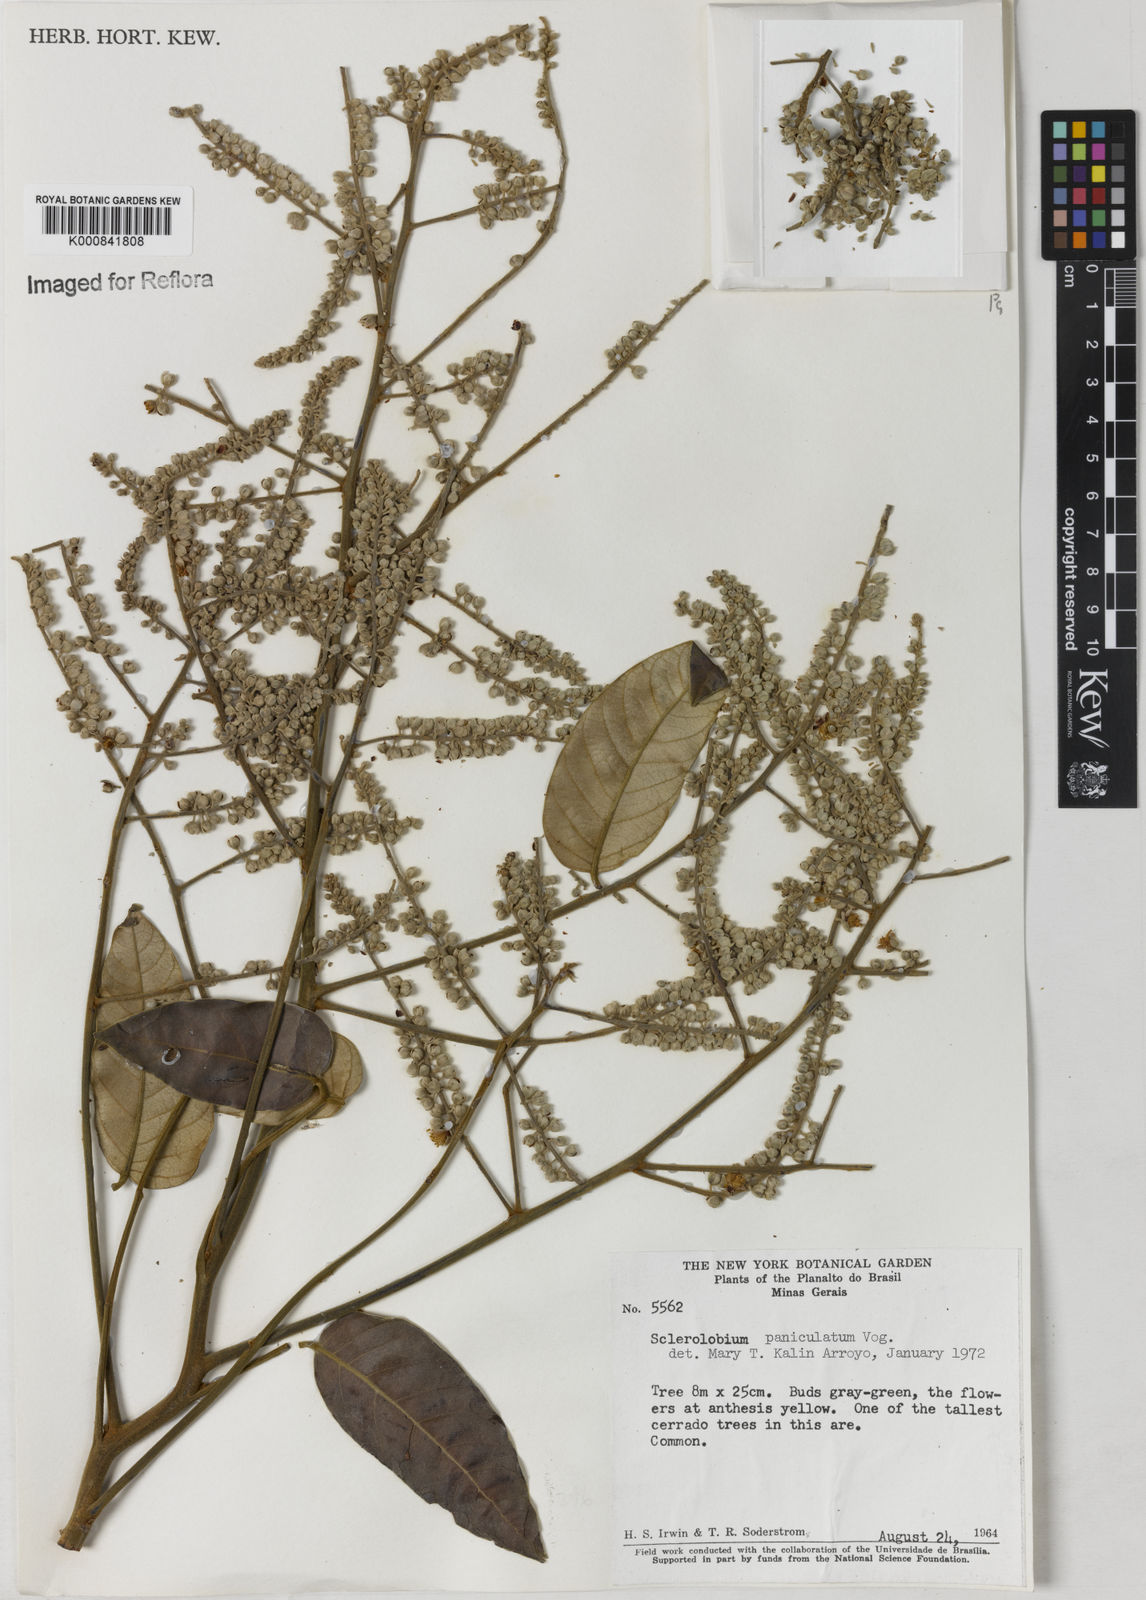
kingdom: Plantae
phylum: Tracheophyta
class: Magnoliopsida
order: Fabales
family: Fabaceae
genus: Tachigali
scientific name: Tachigali subvelutina
